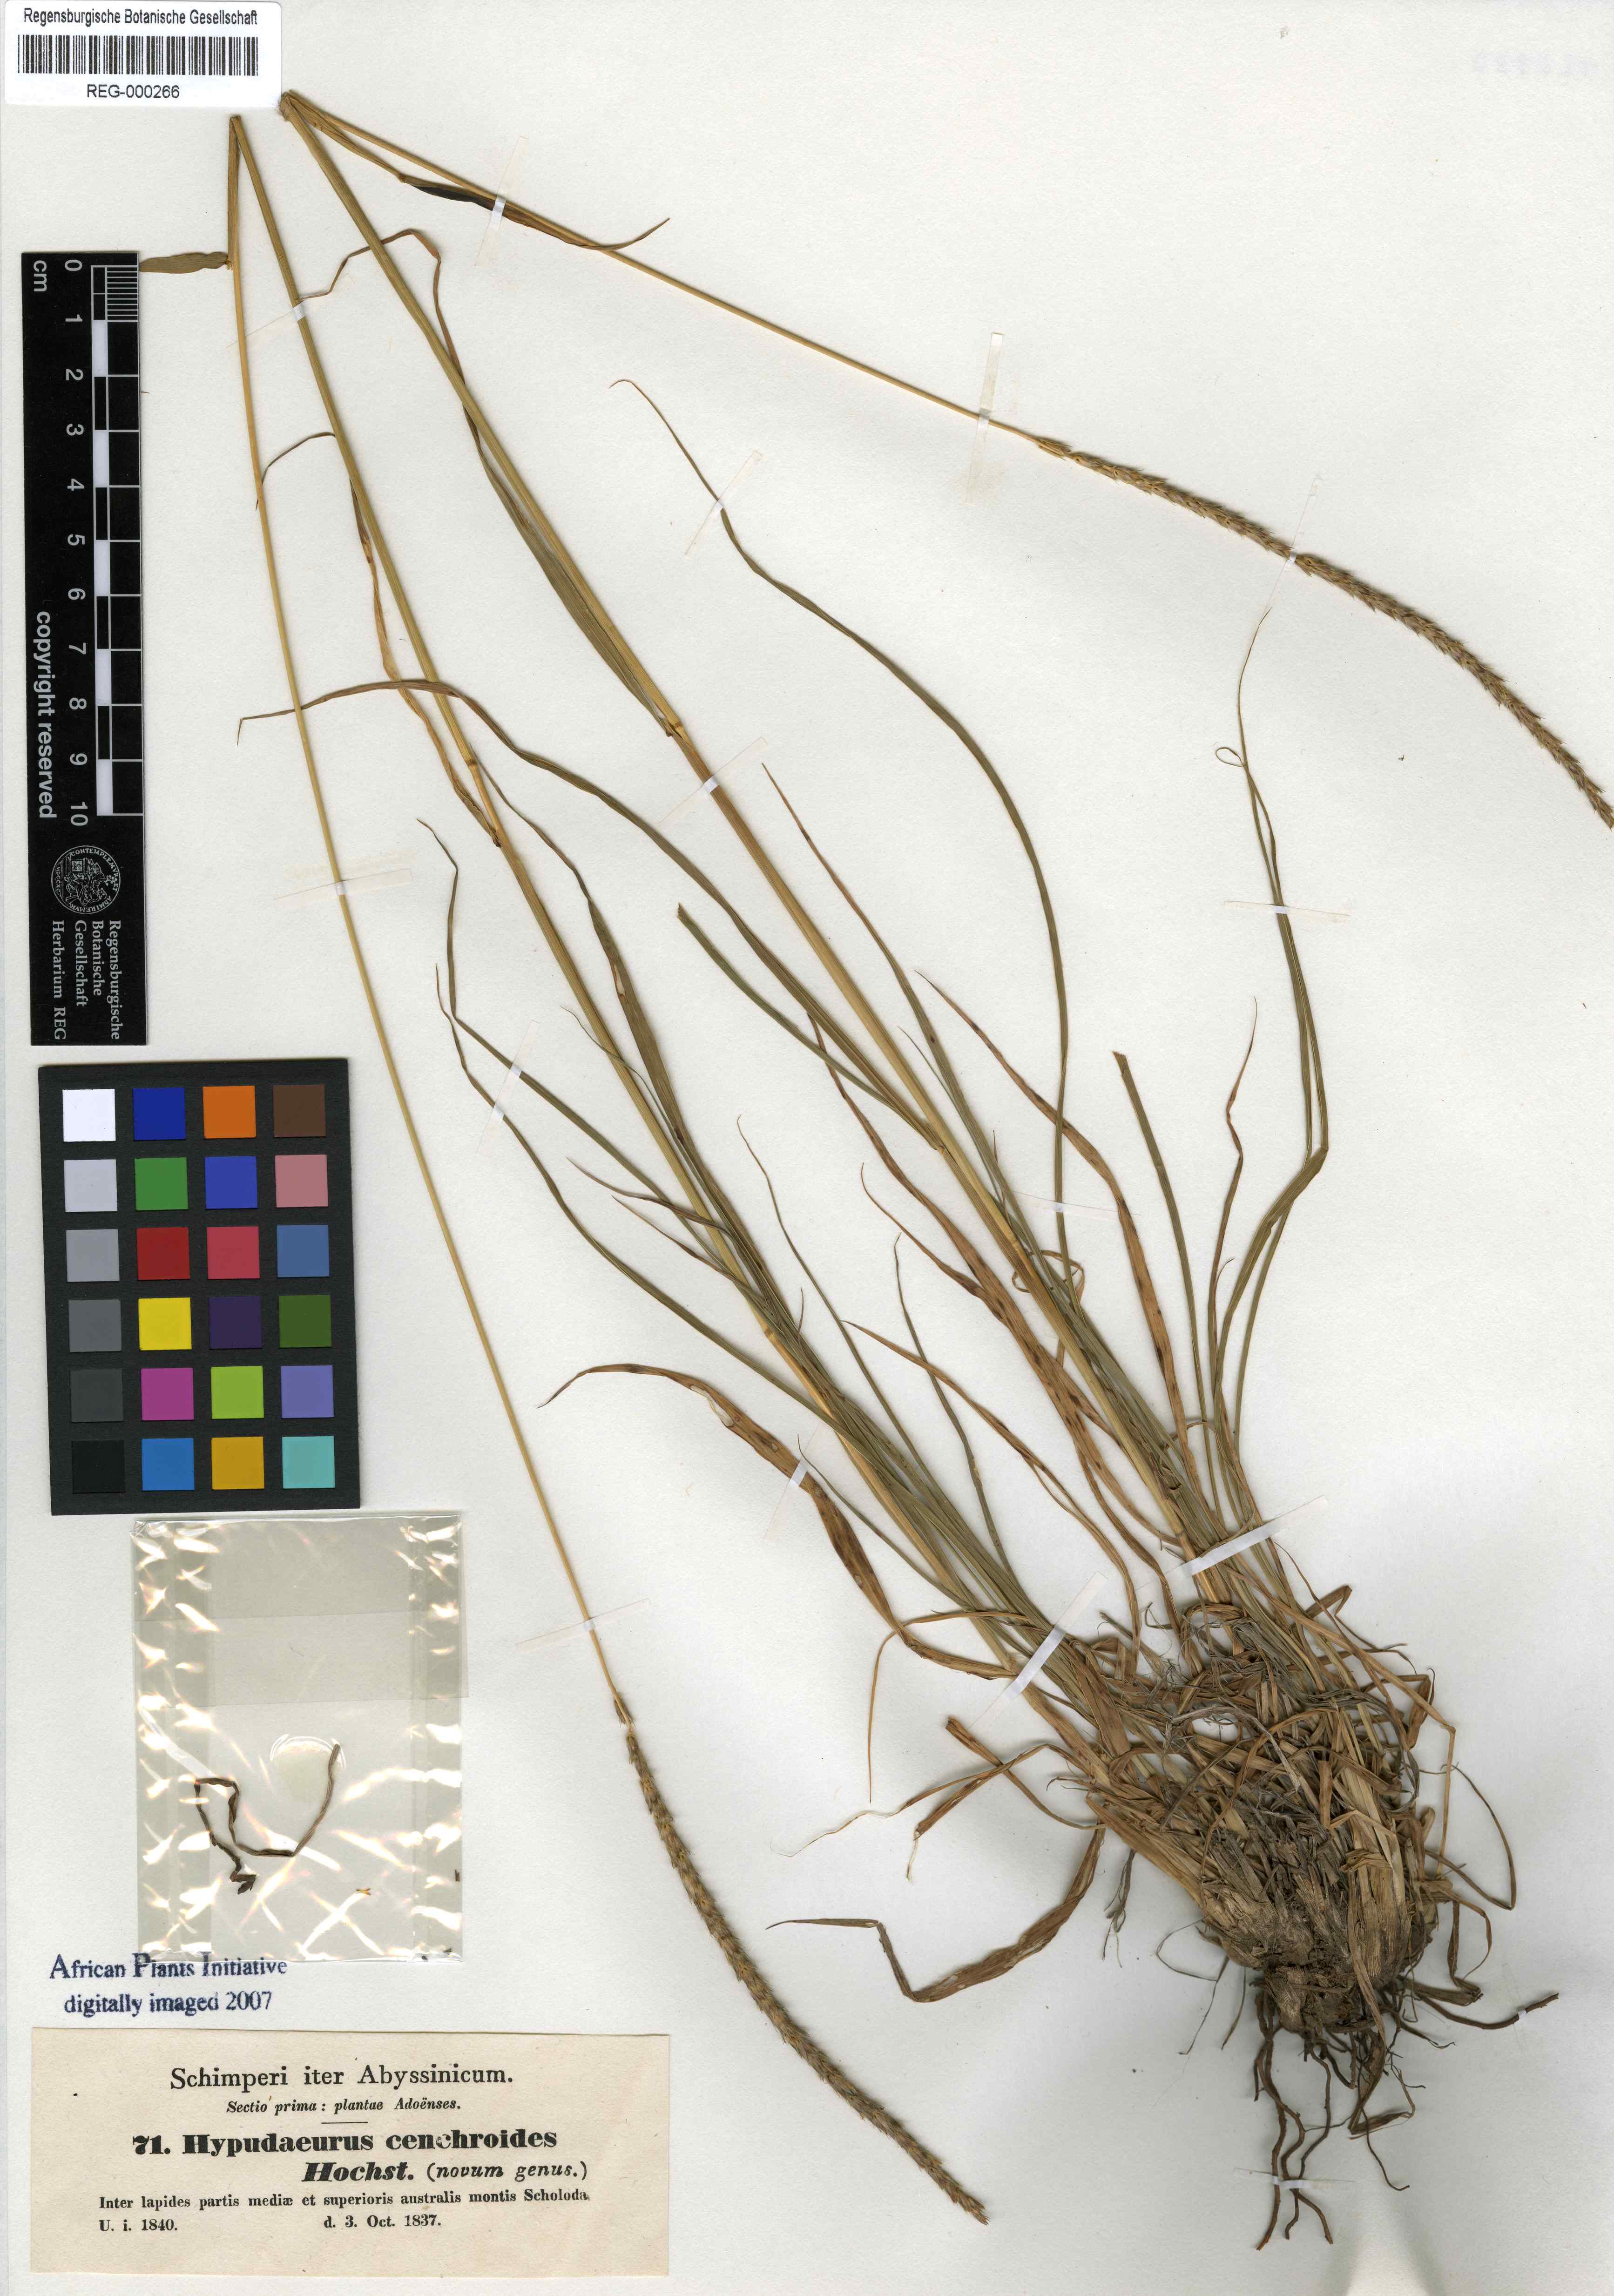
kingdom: Plantae
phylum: Tracheophyta
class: Liliopsida
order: Poales
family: Poaceae
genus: Anthephora
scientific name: Anthephora
